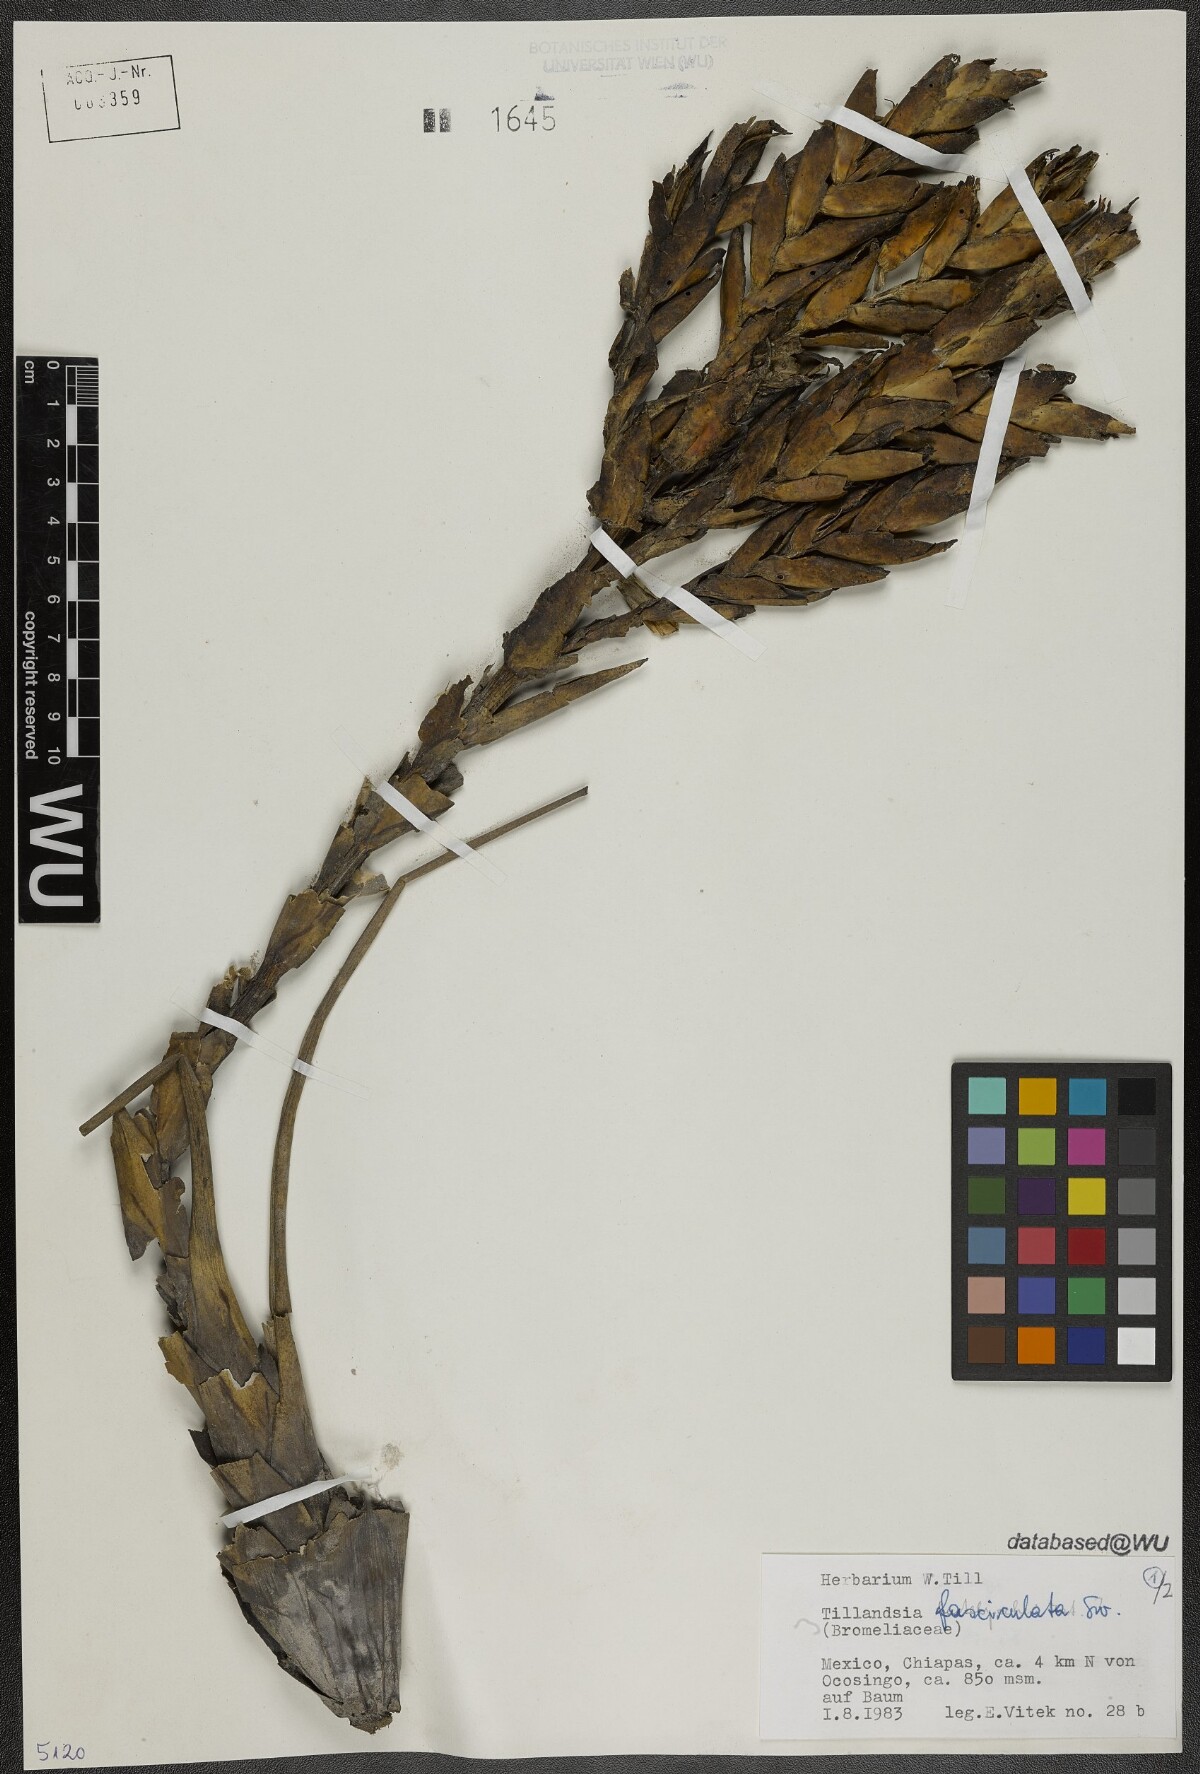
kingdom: Plantae
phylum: Tracheophyta
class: Liliopsida
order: Poales
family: Bromeliaceae
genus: Tillandsia
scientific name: Tillandsia fasciculata
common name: Giant airplant
